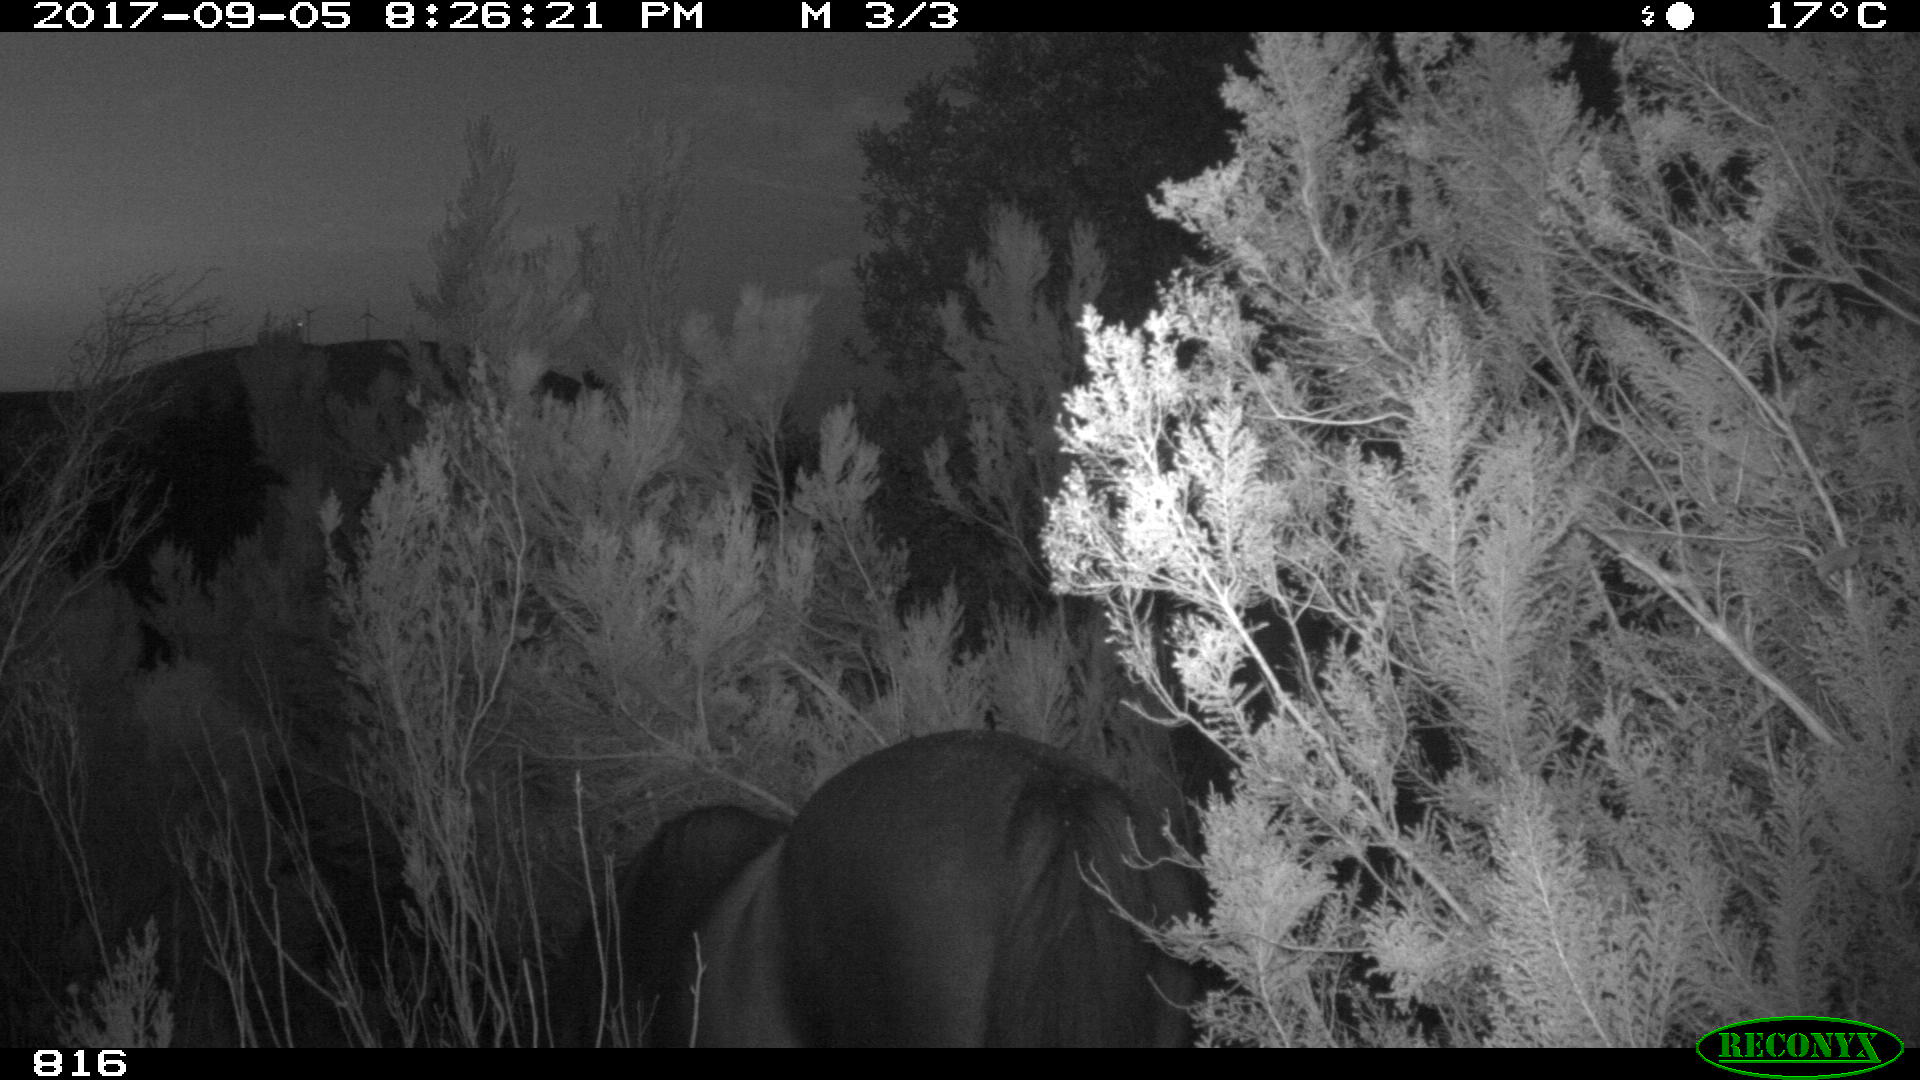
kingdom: Animalia
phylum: Chordata
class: Mammalia
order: Perissodactyla
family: Equidae
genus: Equus
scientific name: Equus caballus
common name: Horse
